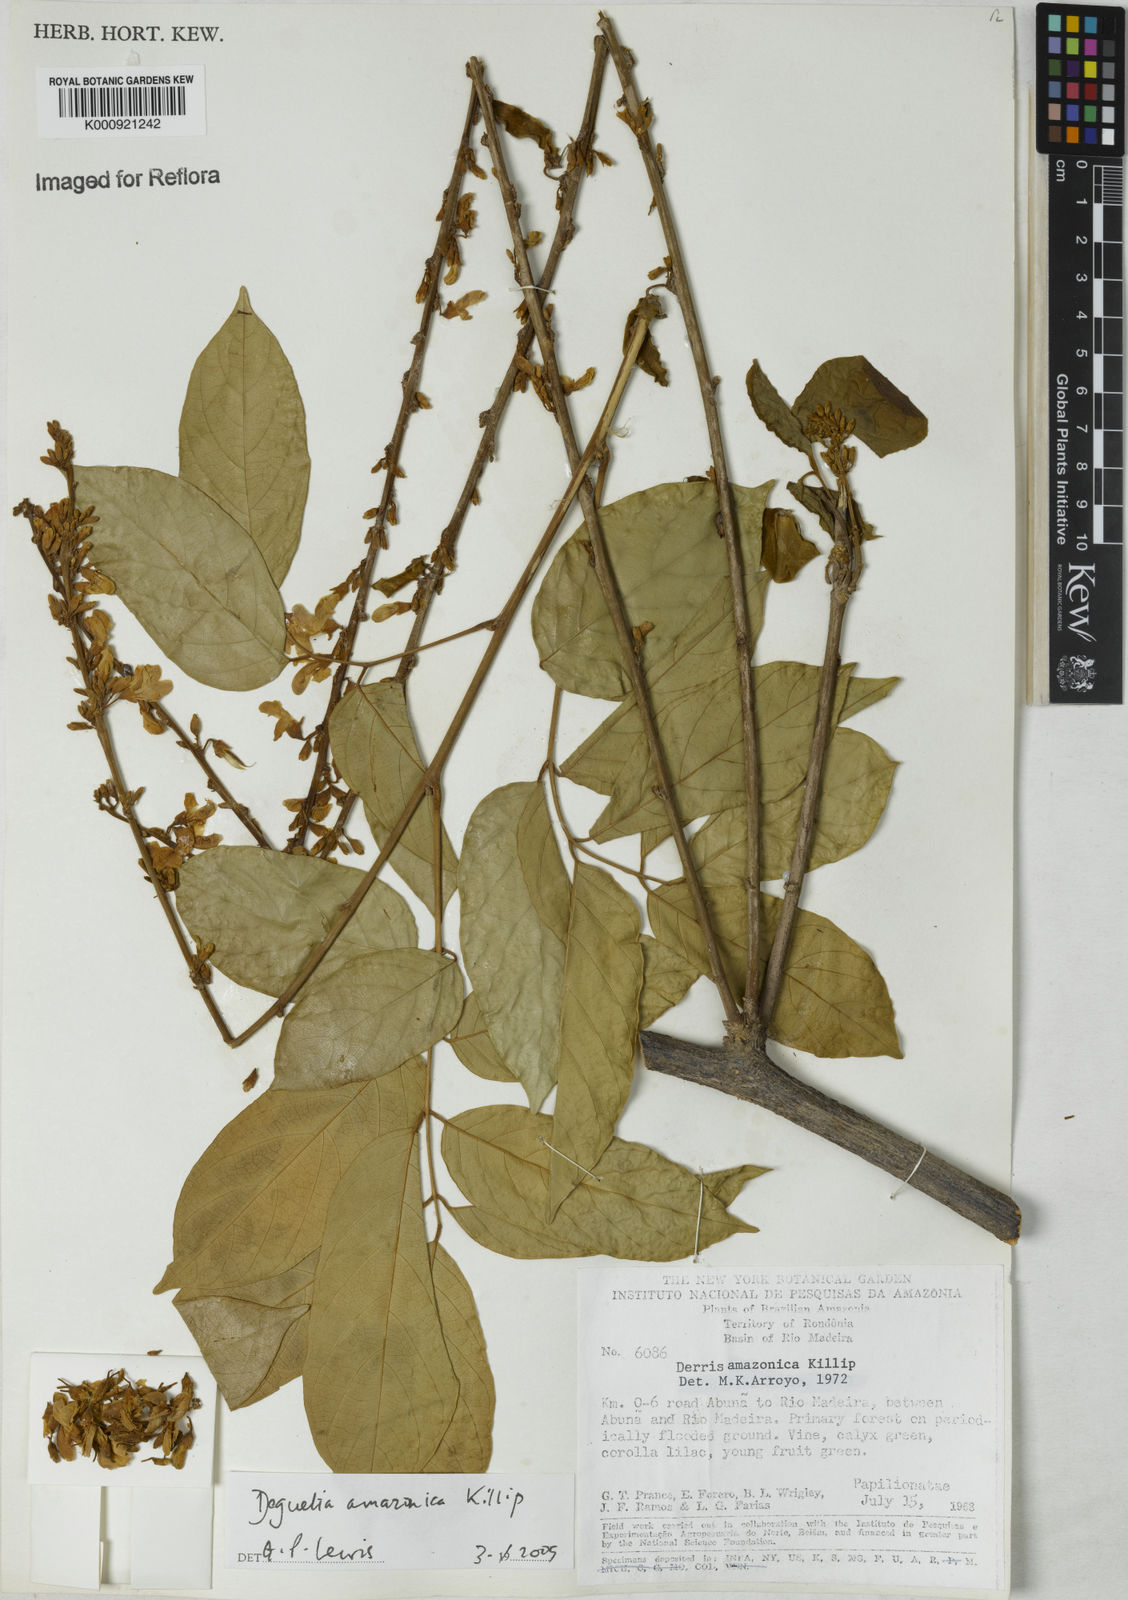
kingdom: Plantae
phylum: Tracheophyta
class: Magnoliopsida
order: Fabales
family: Fabaceae
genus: Deguelia
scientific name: Deguelia amazonica
